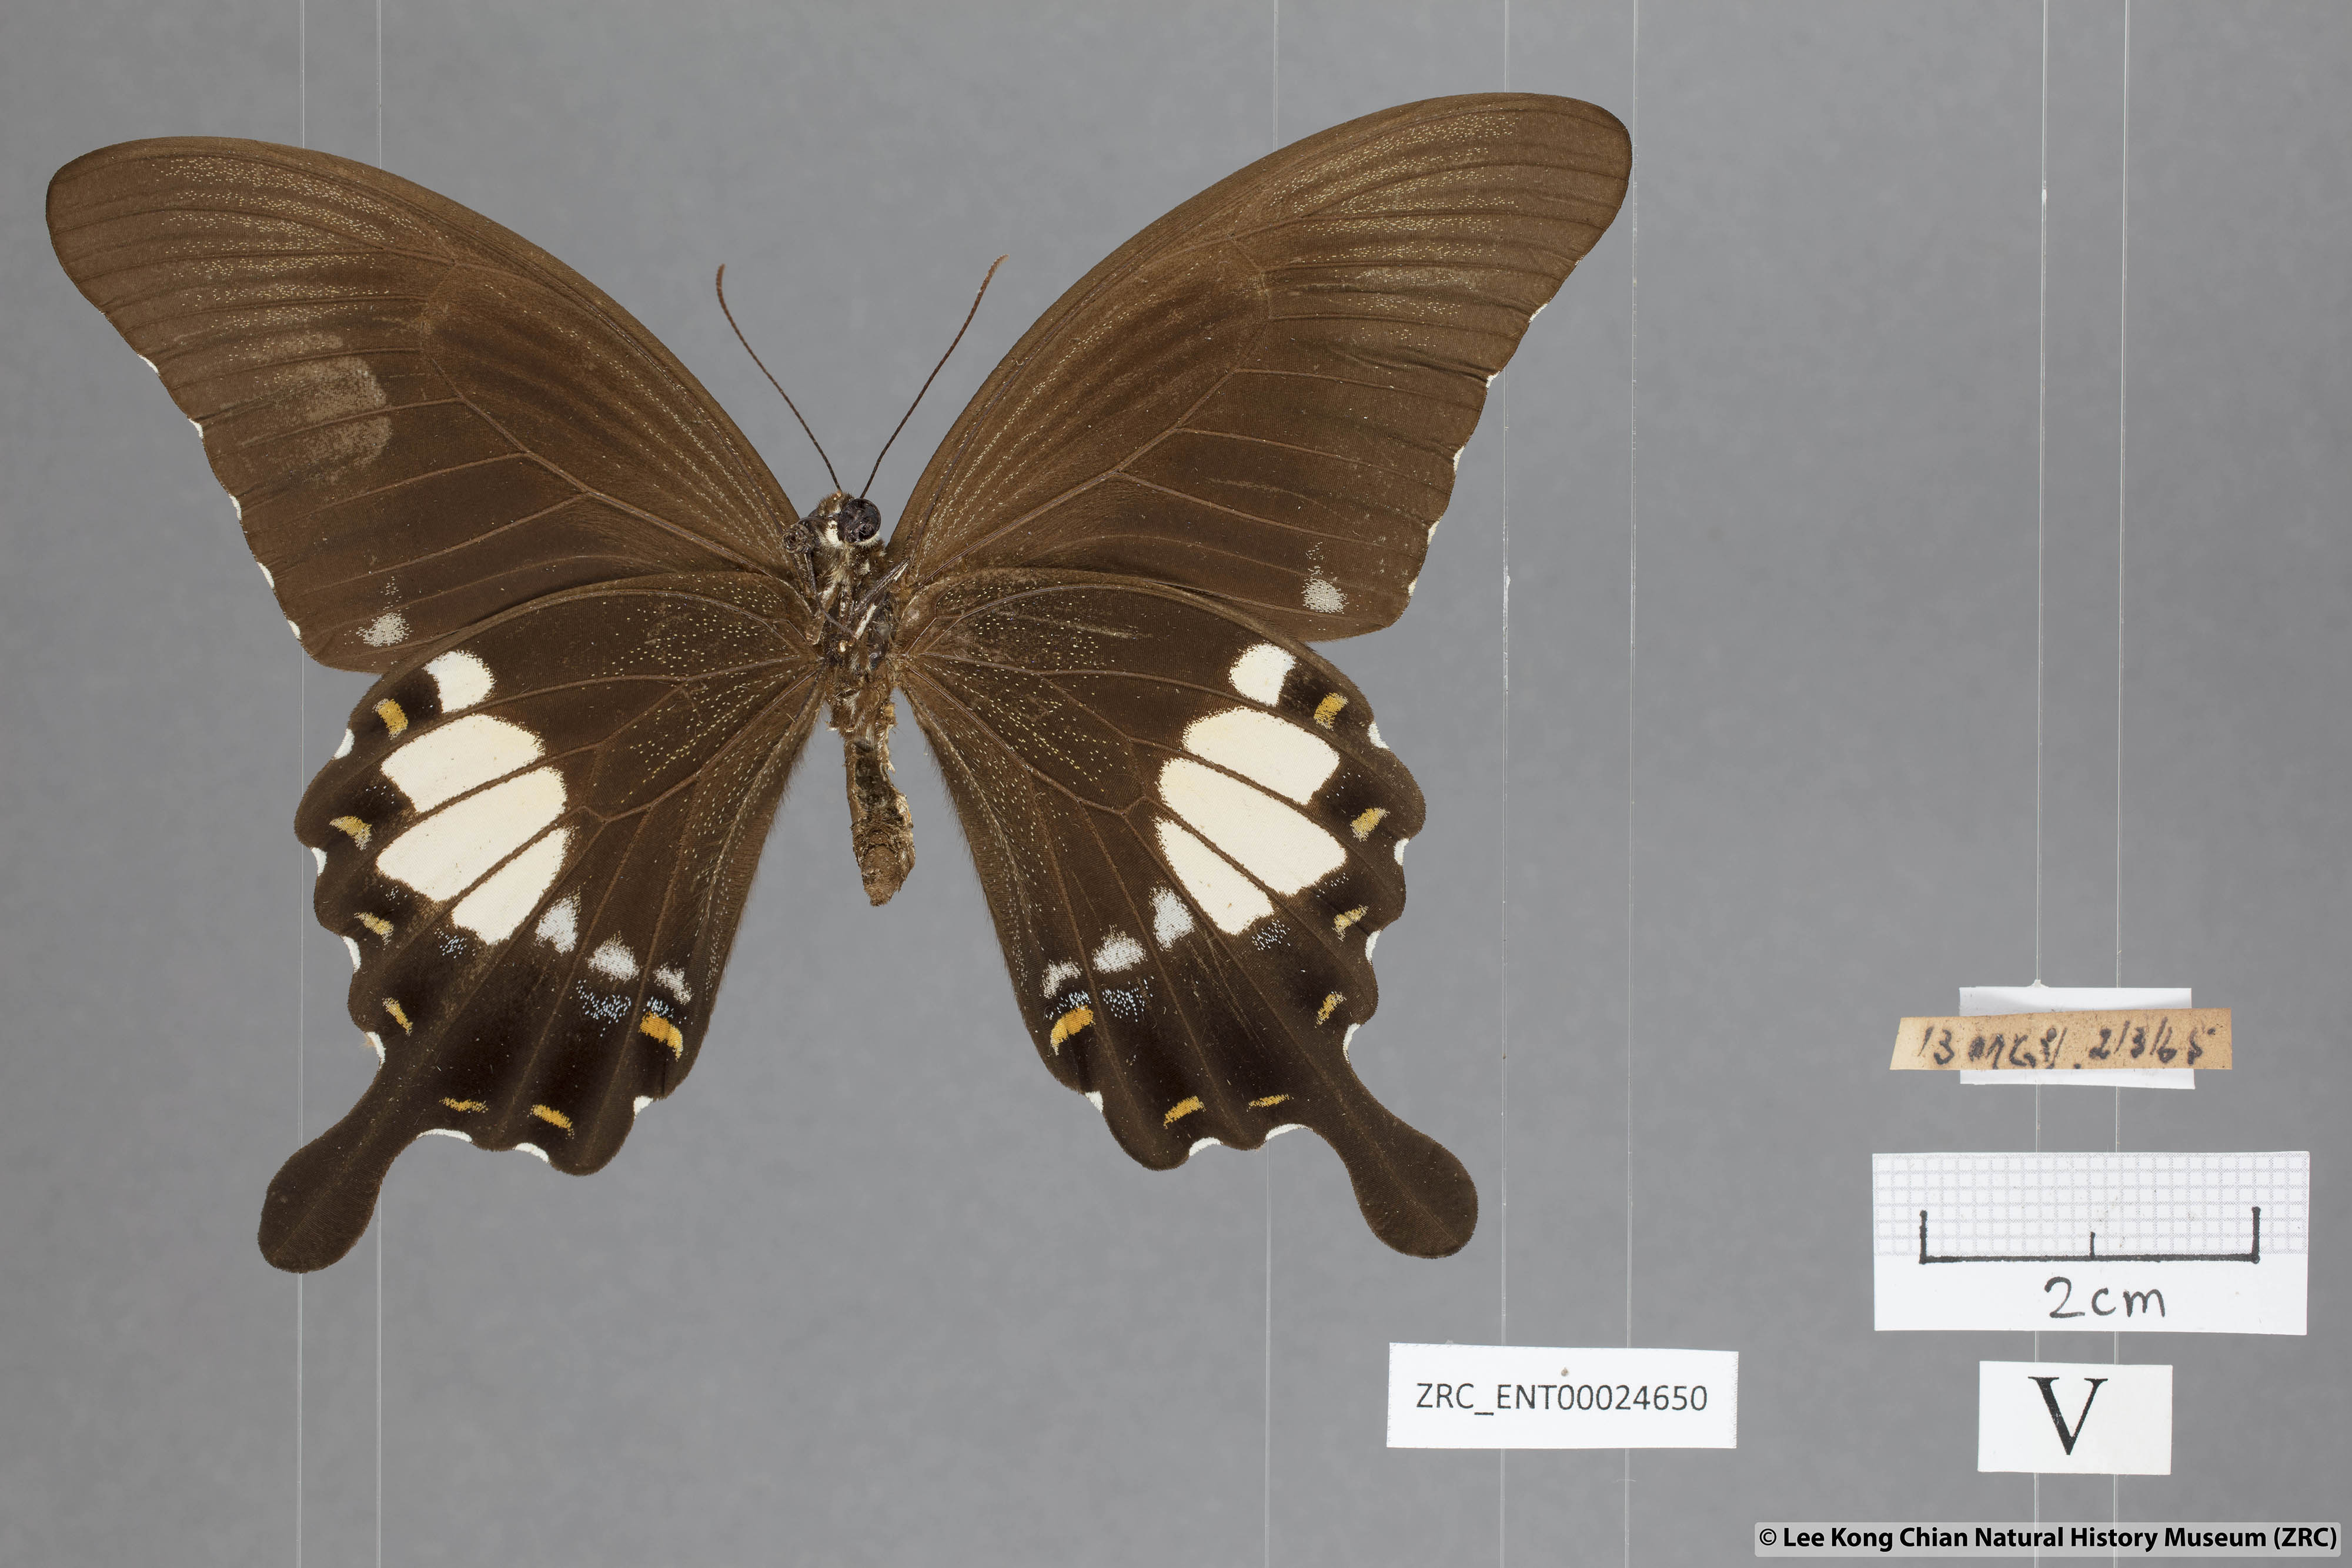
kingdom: Animalia
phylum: Arthropoda
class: Insecta
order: Lepidoptera
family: Papilionidae
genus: Papilio
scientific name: Papilio prexaspes
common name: Blue helen swallowtail
